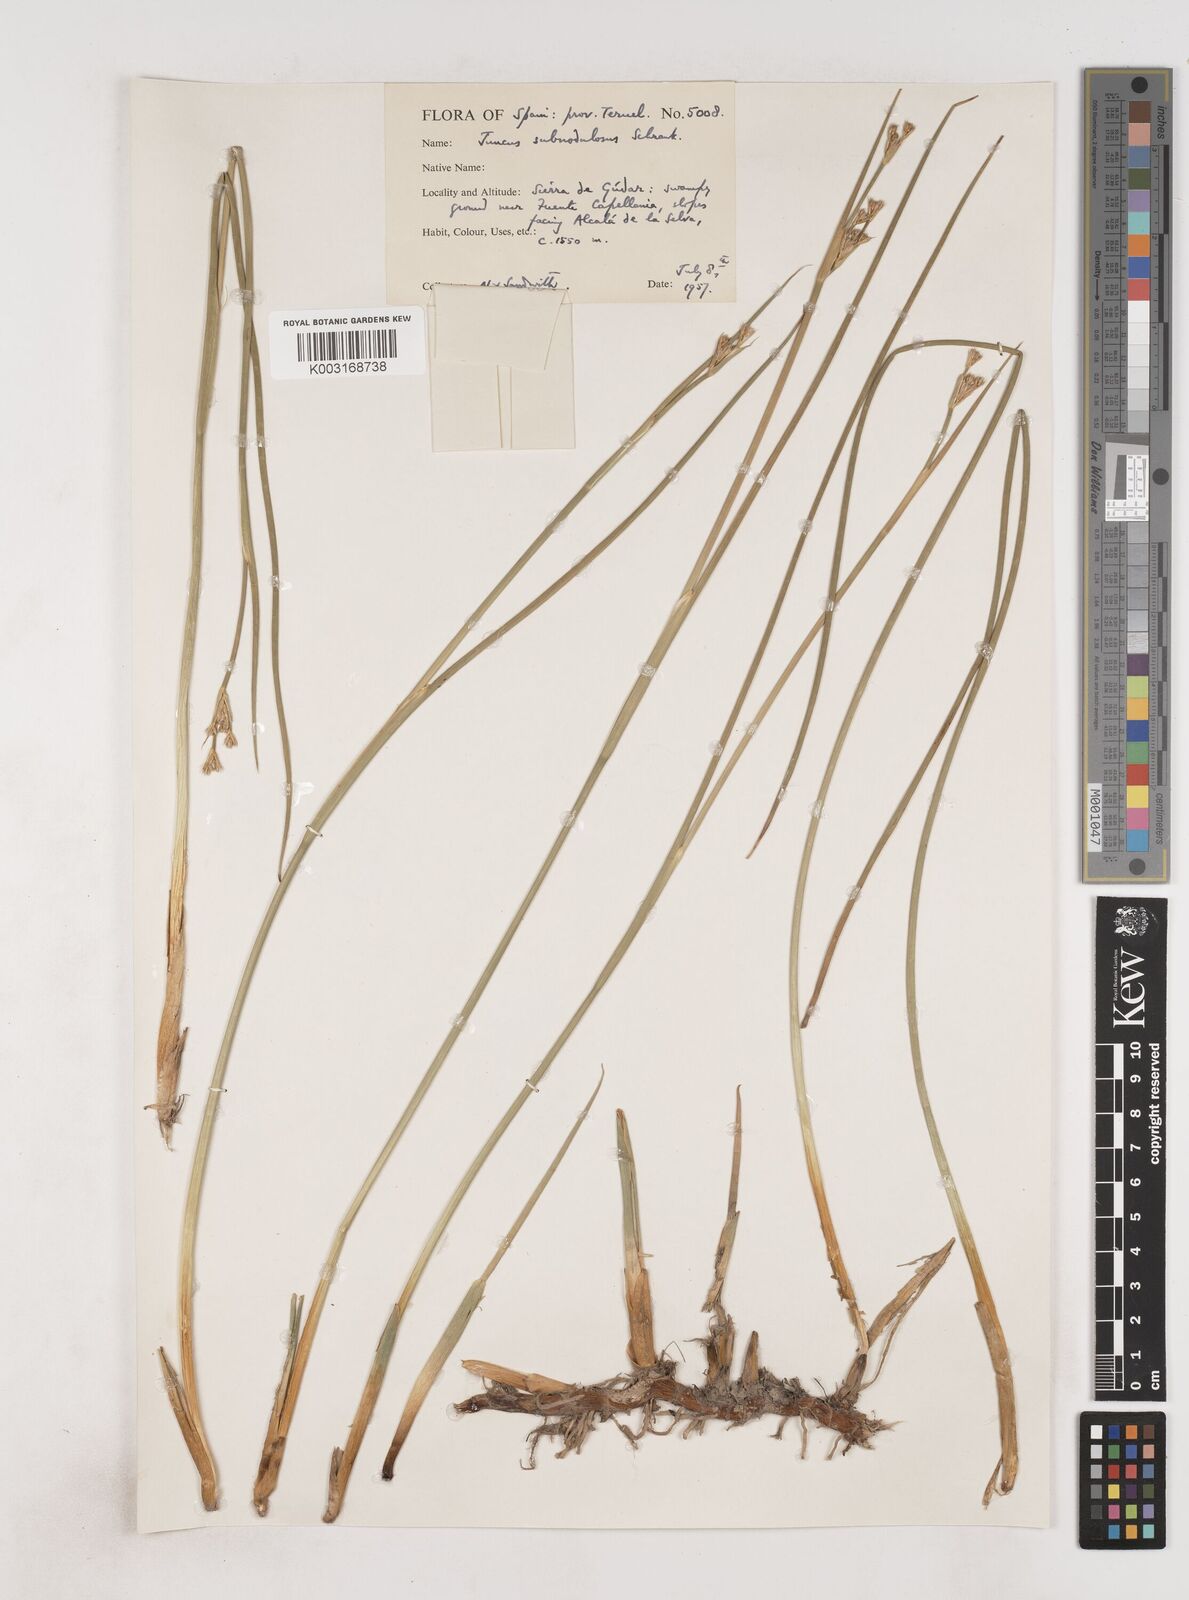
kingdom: Plantae
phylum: Tracheophyta
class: Liliopsida
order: Poales
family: Juncaceae
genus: Juncus
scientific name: Juncus subnodulosus
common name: Blunt-flowered rush
